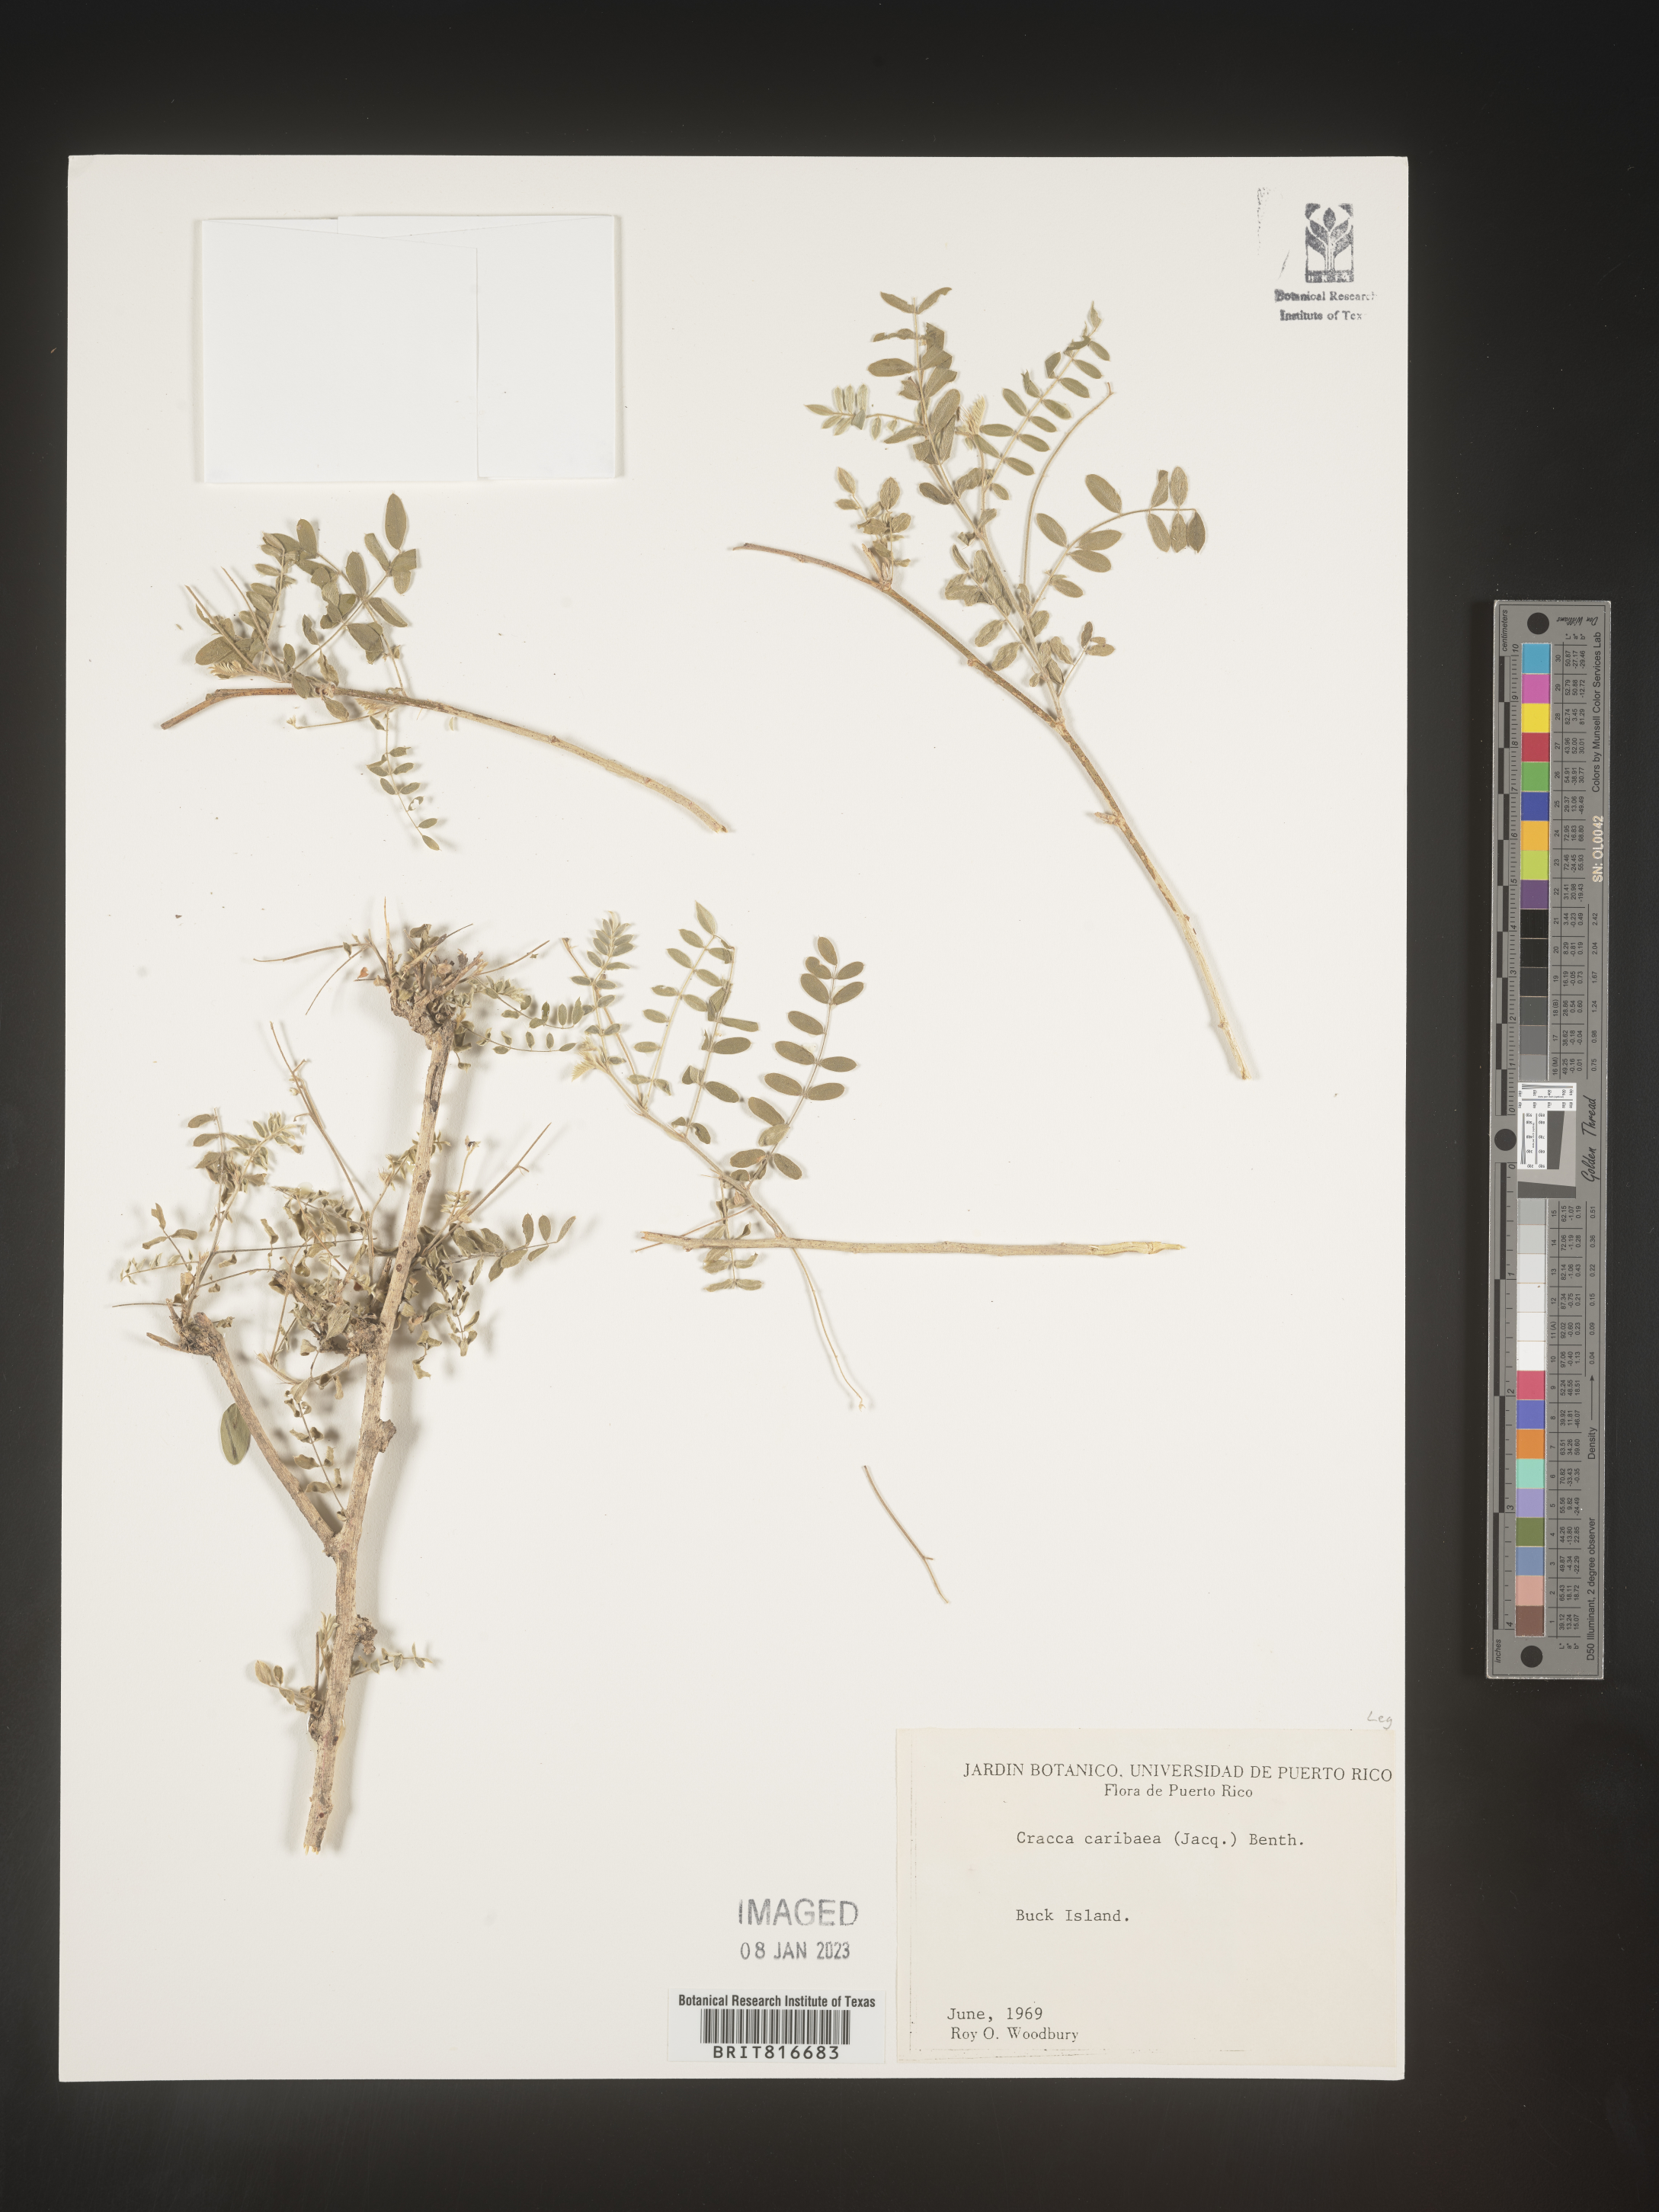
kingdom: Plantae
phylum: Tracheophyta
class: Magnoliopsida
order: Fabales
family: Fabaceae
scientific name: Fabaceae
